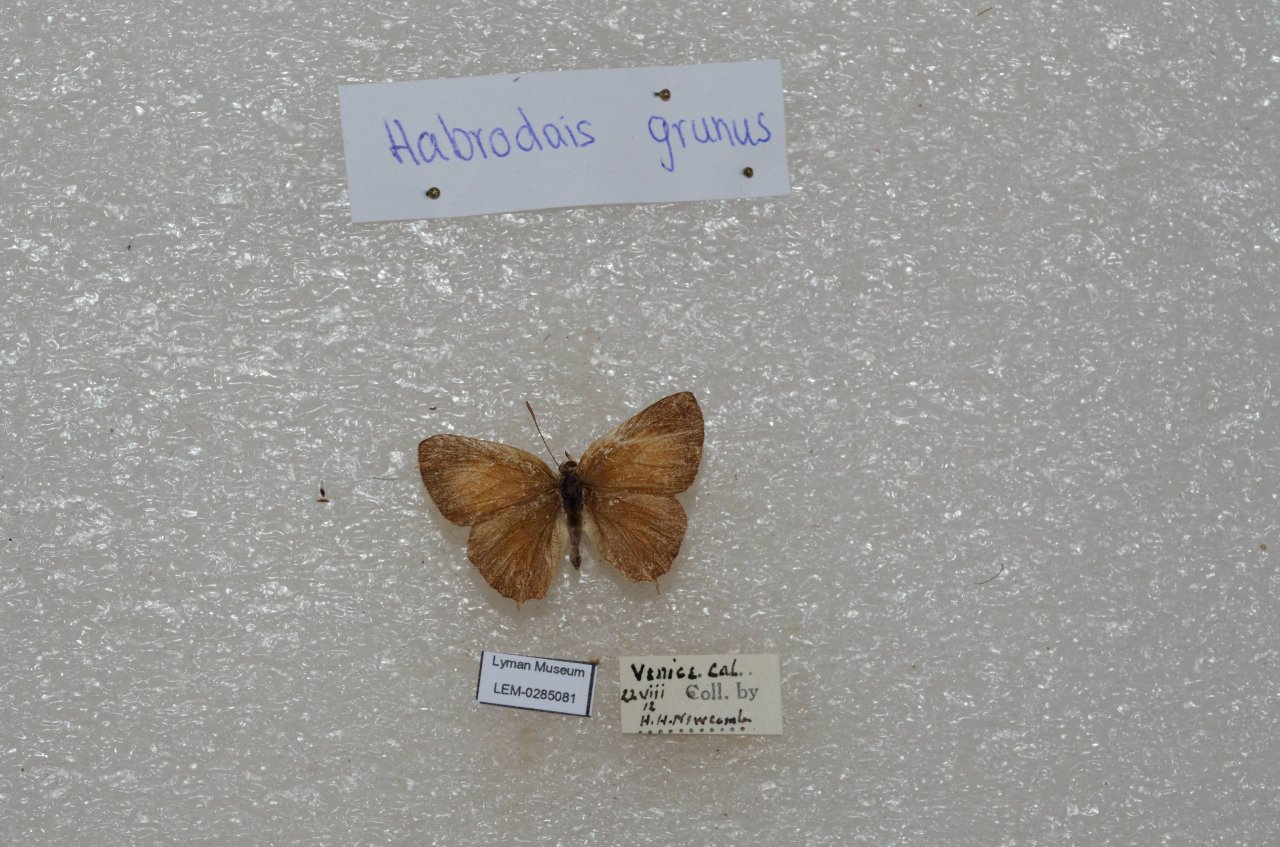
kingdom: Animalia
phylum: Arthropoda
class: Insecta
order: Lepidoptera
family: Lycaenidae
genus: Habrodais
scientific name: Habrodais grunus
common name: Golden Hairstreak
